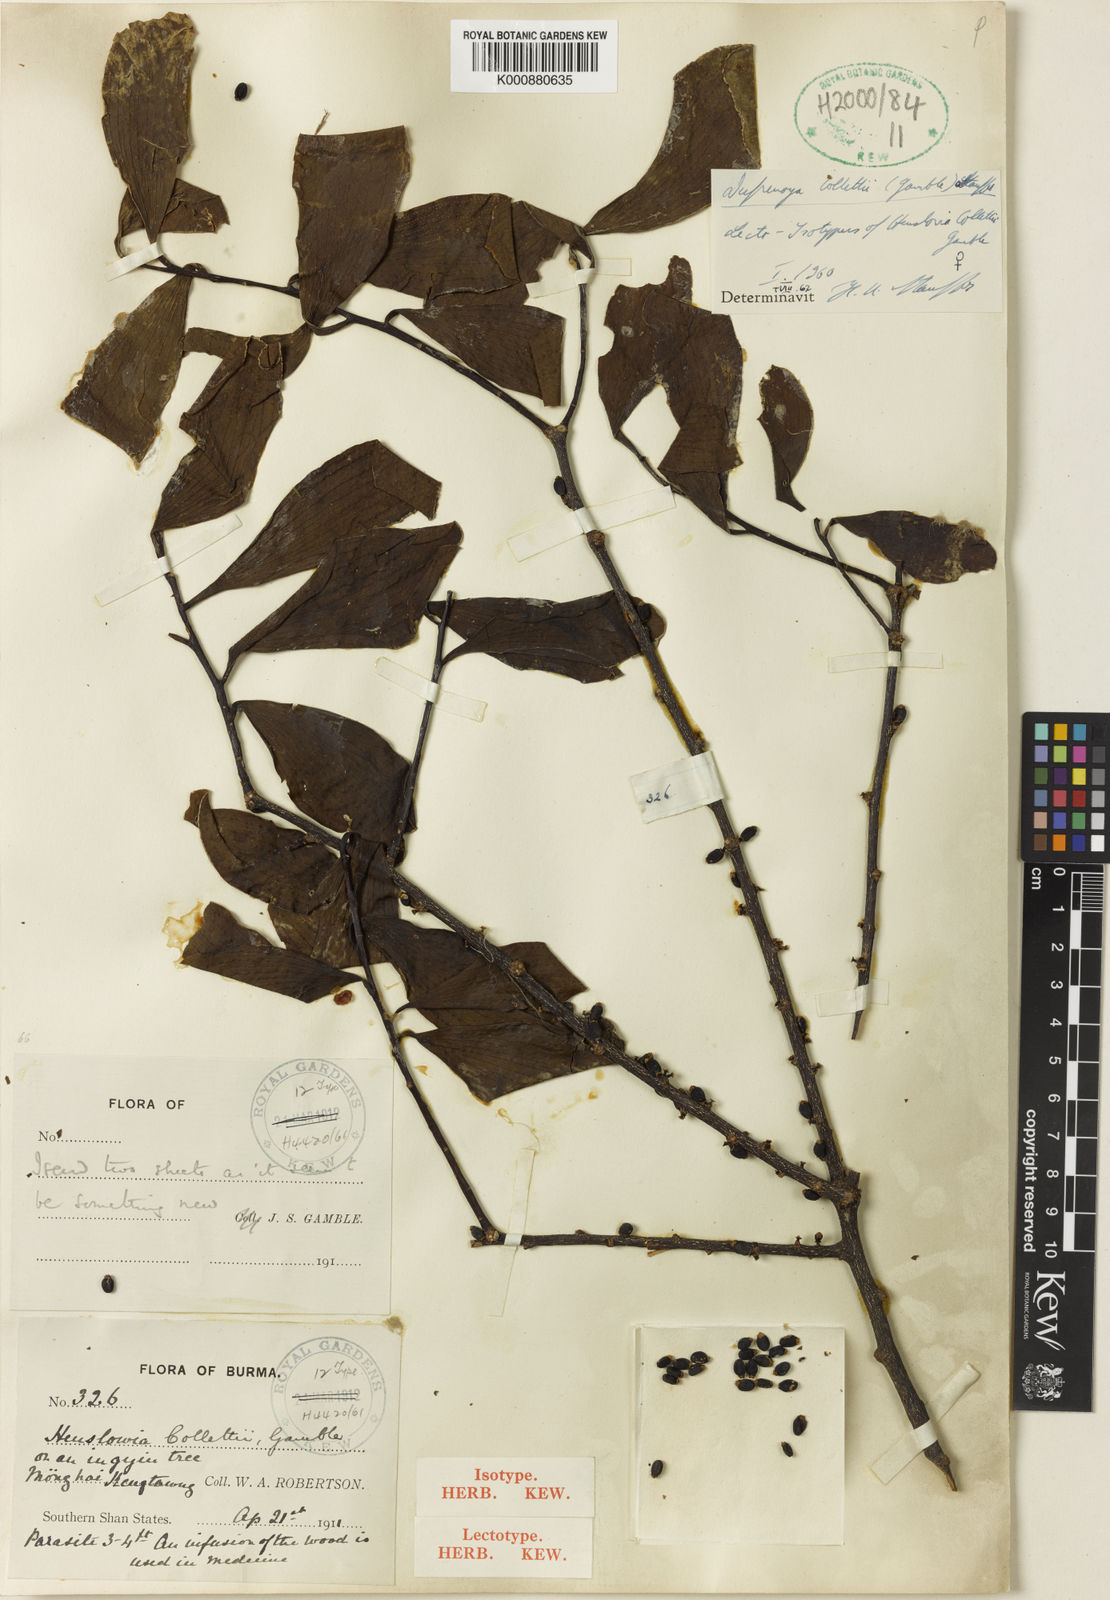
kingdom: Plantae
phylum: Tracheophyta
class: Magnoliopsida
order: Santalales
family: Amphorogynaceae
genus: Dufrenoya
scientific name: Dufrenoya collettii
